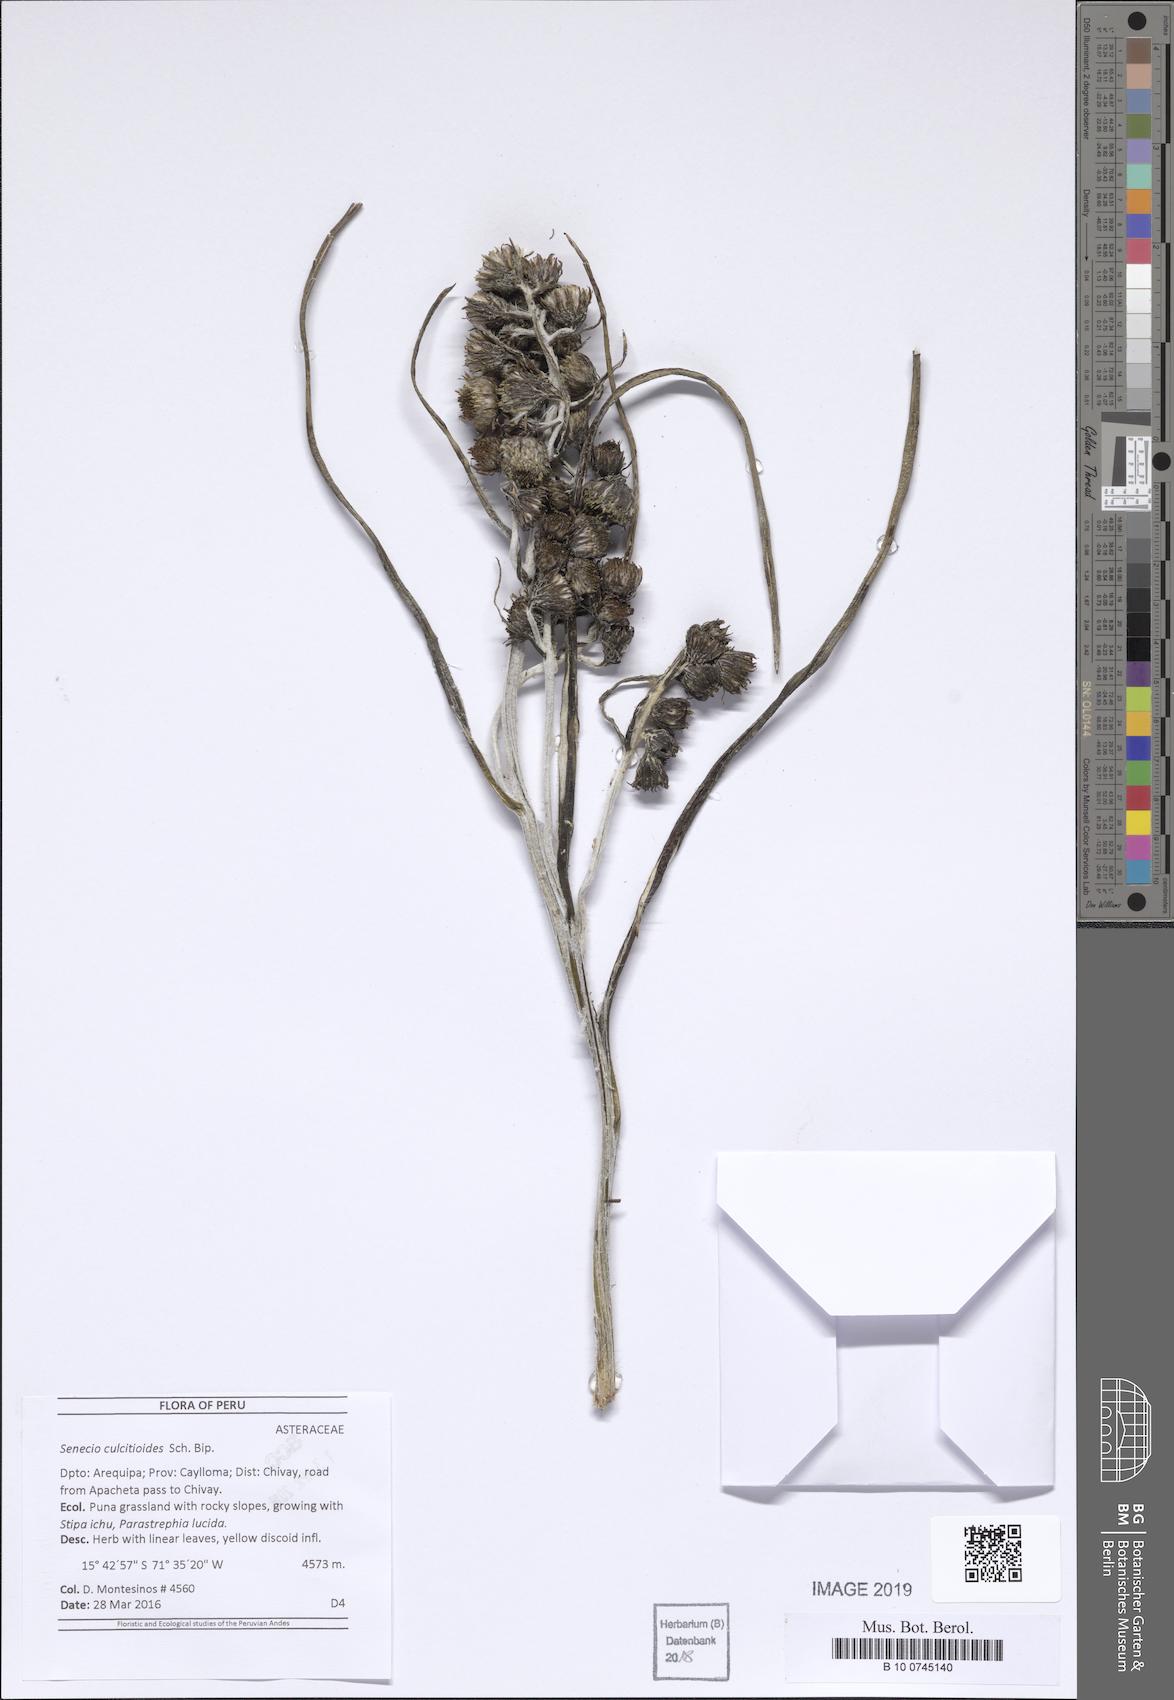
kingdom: Plantae
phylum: Tracheophyta
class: Magnoliopsida
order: Asterales
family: Asteraceae
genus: Senecio
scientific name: Senecio comosus
